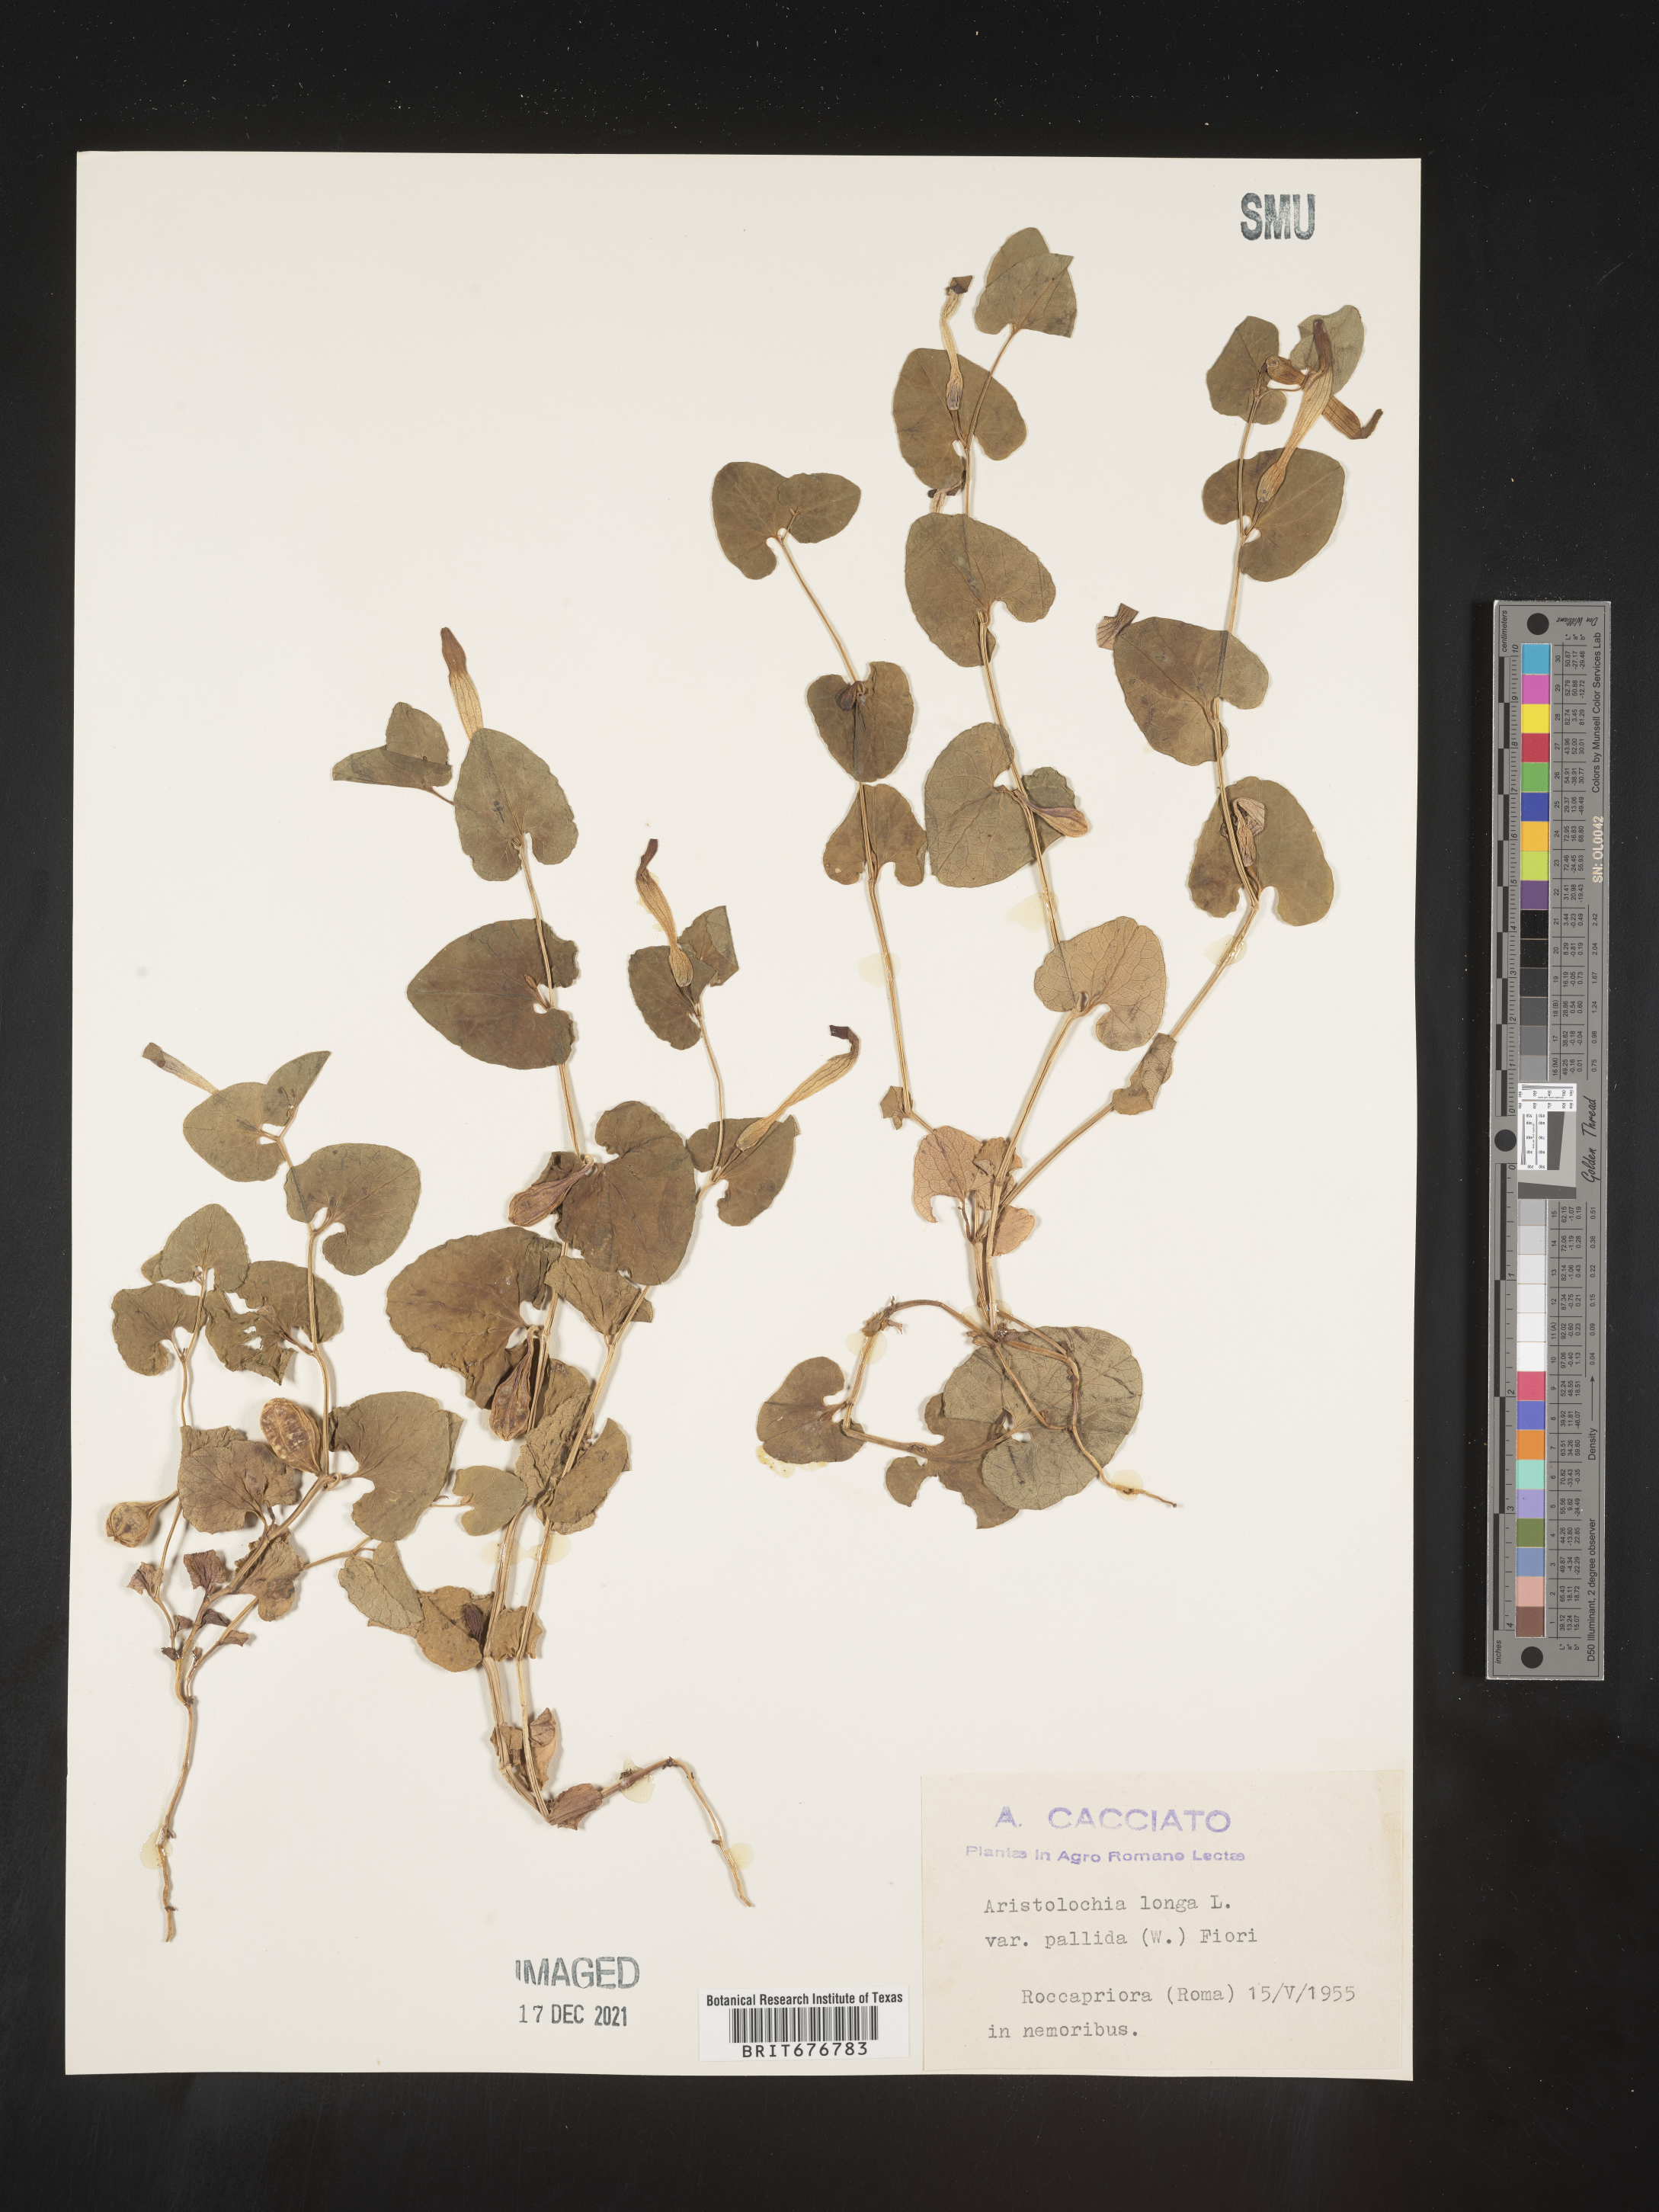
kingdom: Plantae
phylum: Tracheophyta
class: Magnoliopsida
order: Piperales
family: Aristolochiaceae
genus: Aristolochia
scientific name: Aristolochia
